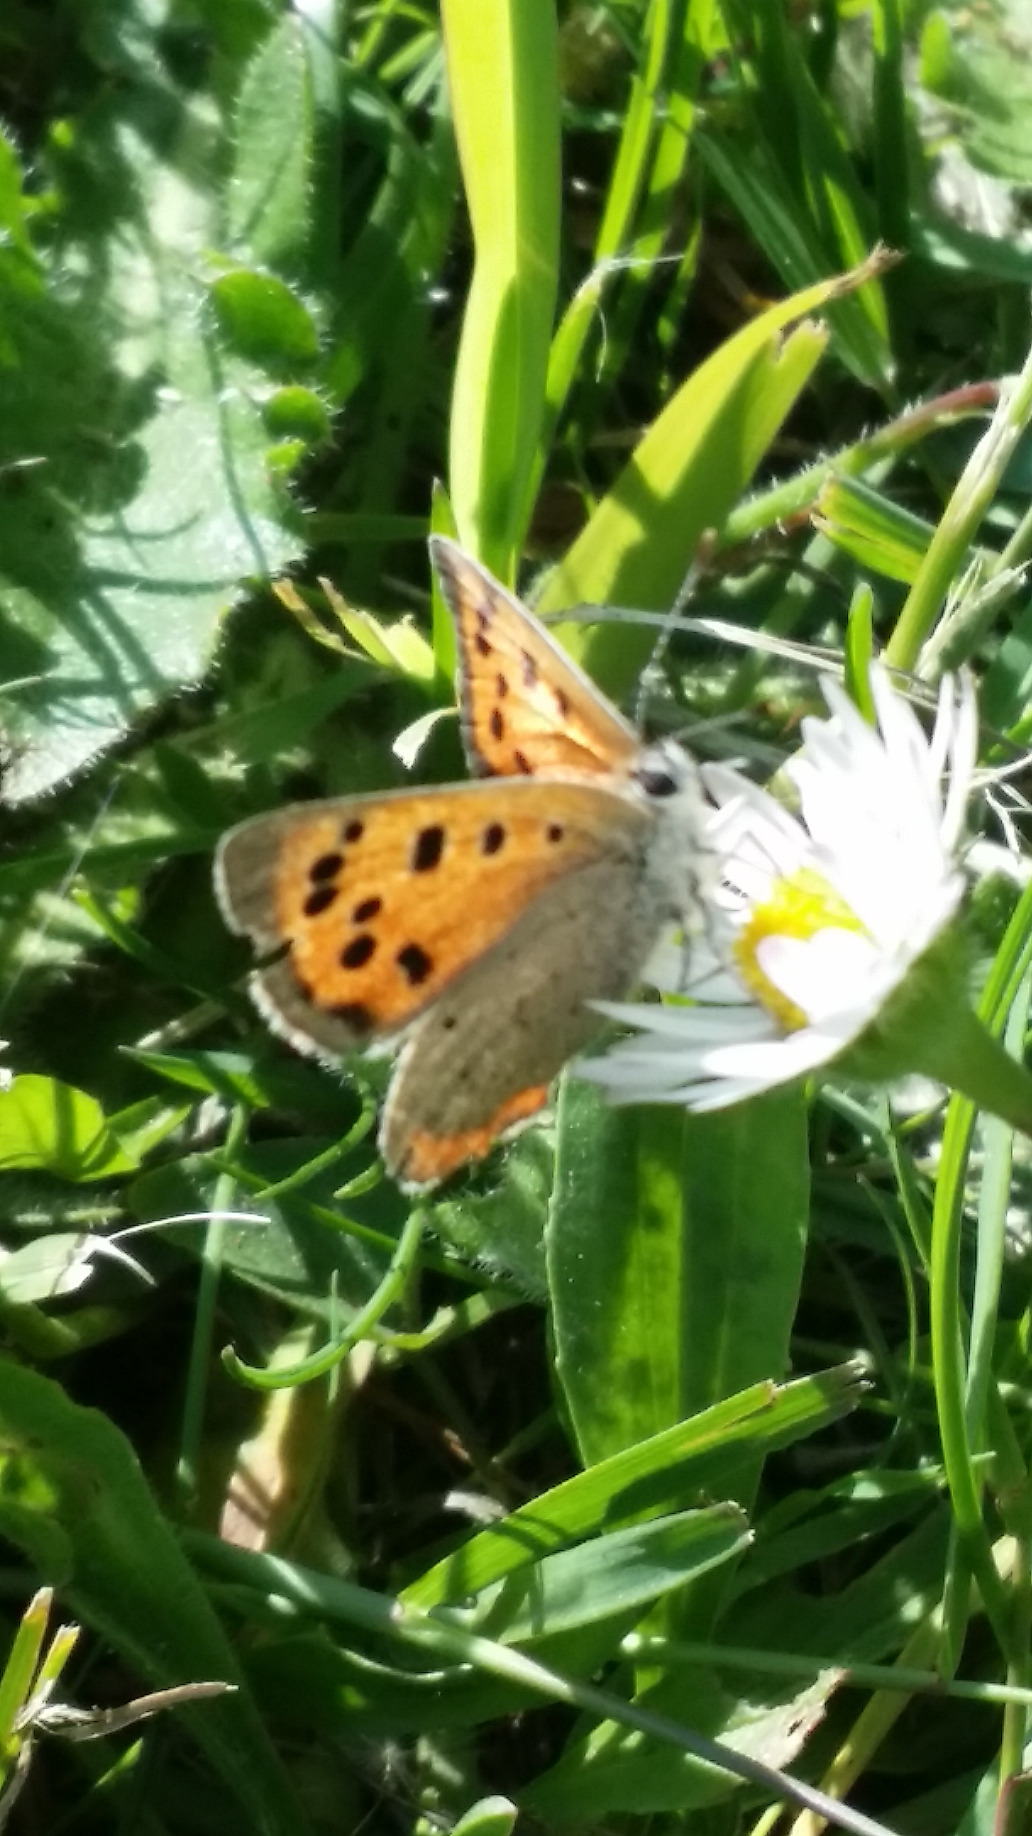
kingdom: Animalia
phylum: Arthropoda
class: Insecta
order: Lepidoptera
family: Lycaenidae
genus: Lycaena
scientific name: Lycaena phlaeas
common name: Lille ildfugl
